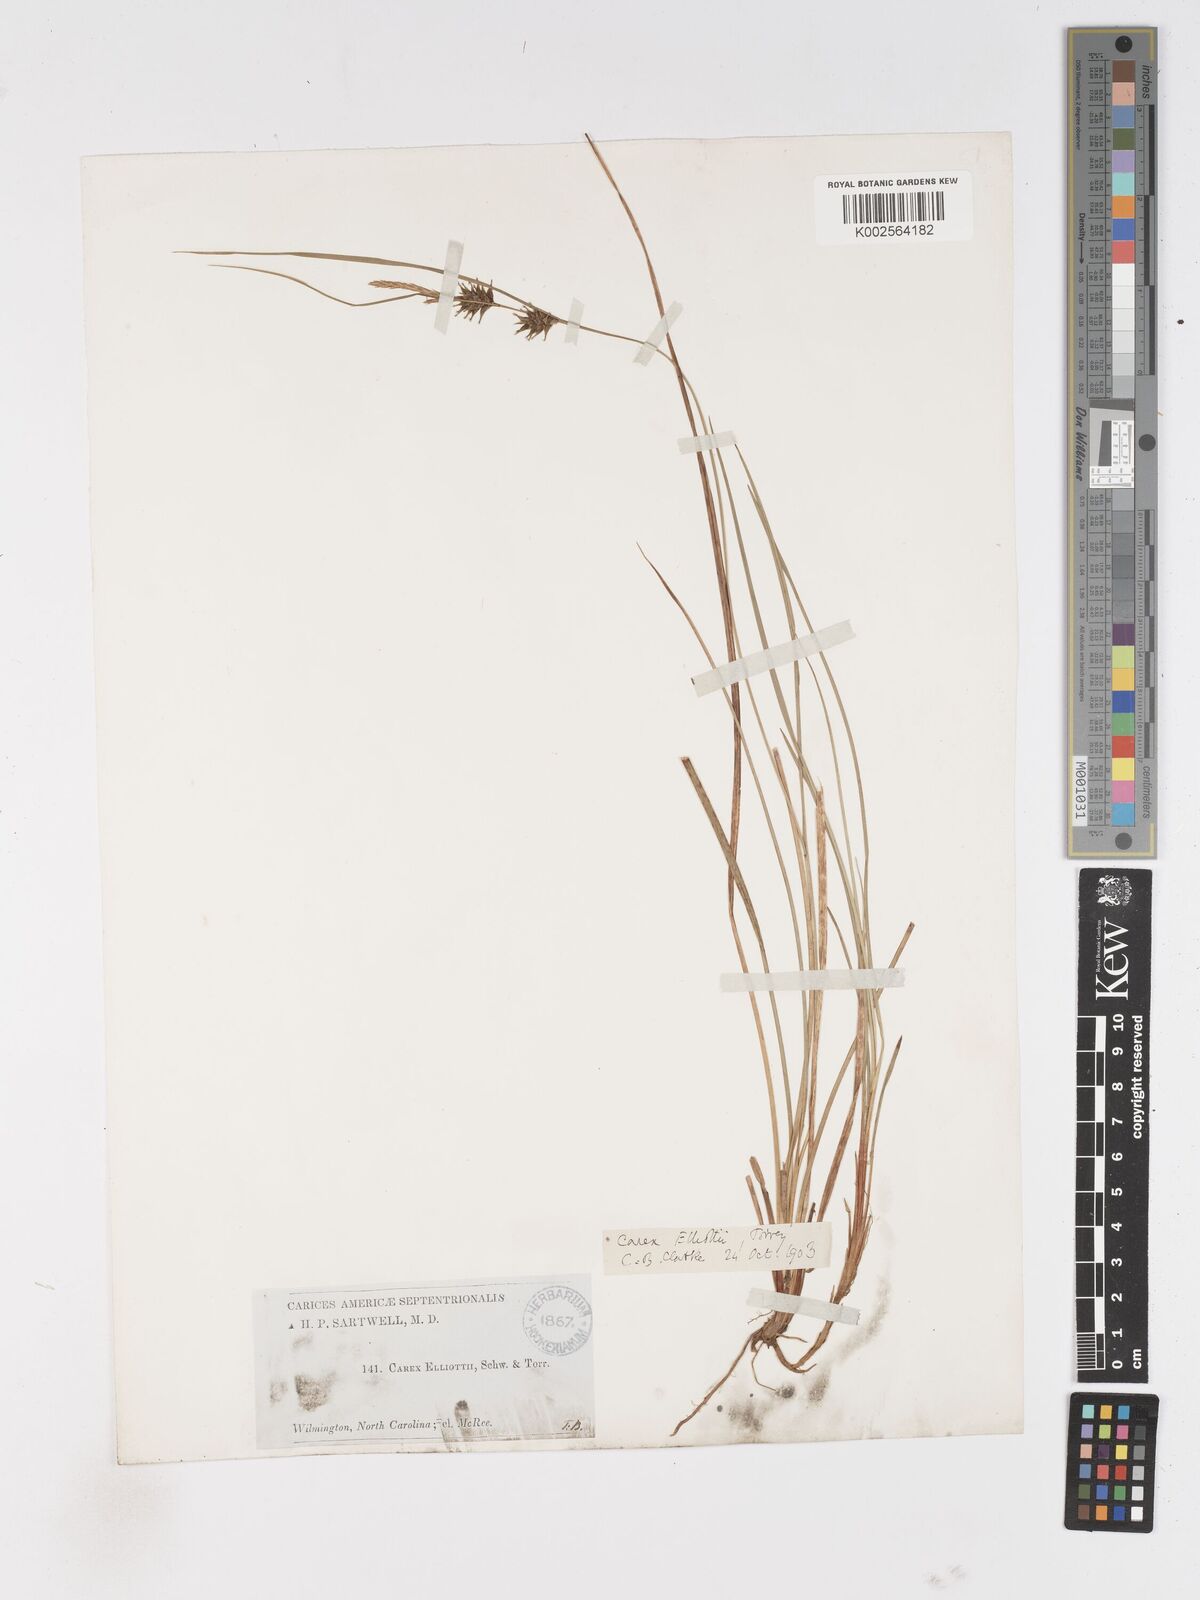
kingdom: Plantae
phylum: Tracheophyta
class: Liliopsida
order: Poales
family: Cyperaceae
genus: Carex
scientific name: Carex elliottii
